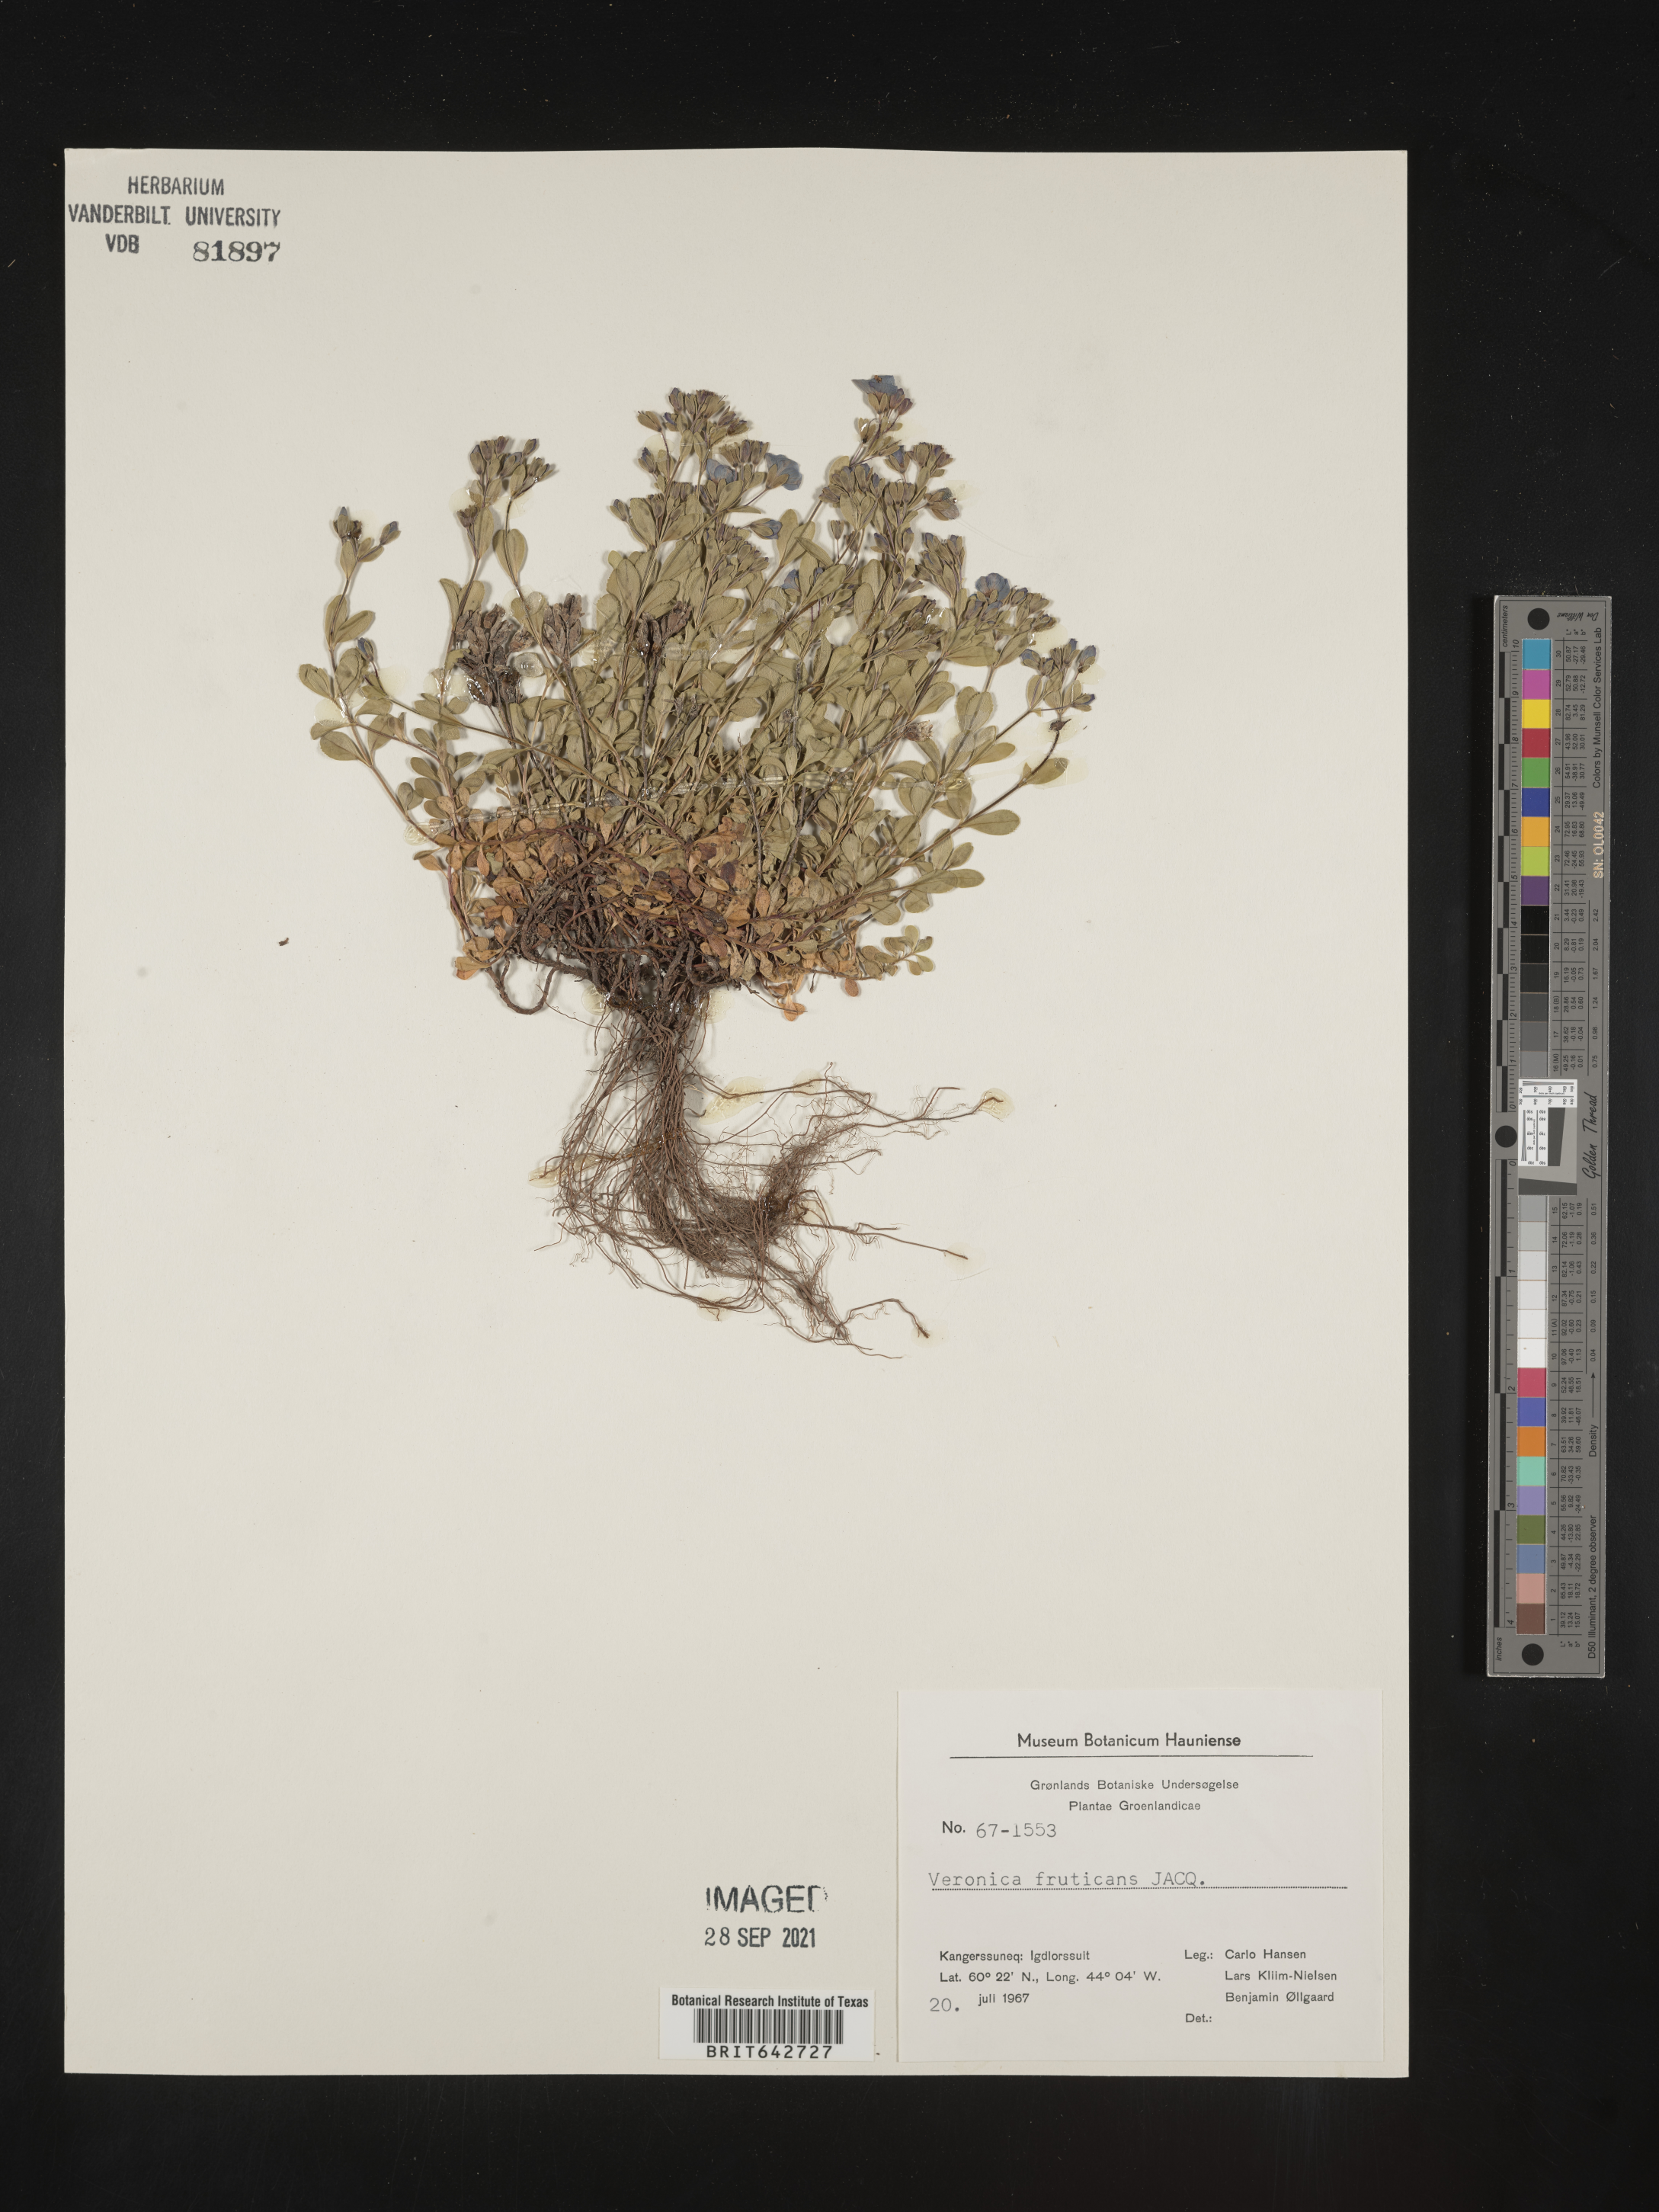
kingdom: Plantae
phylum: Tracheophyta
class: Magnoliopsida
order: Lamiales
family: Plantaginaceae
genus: Veronica
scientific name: Veronica
